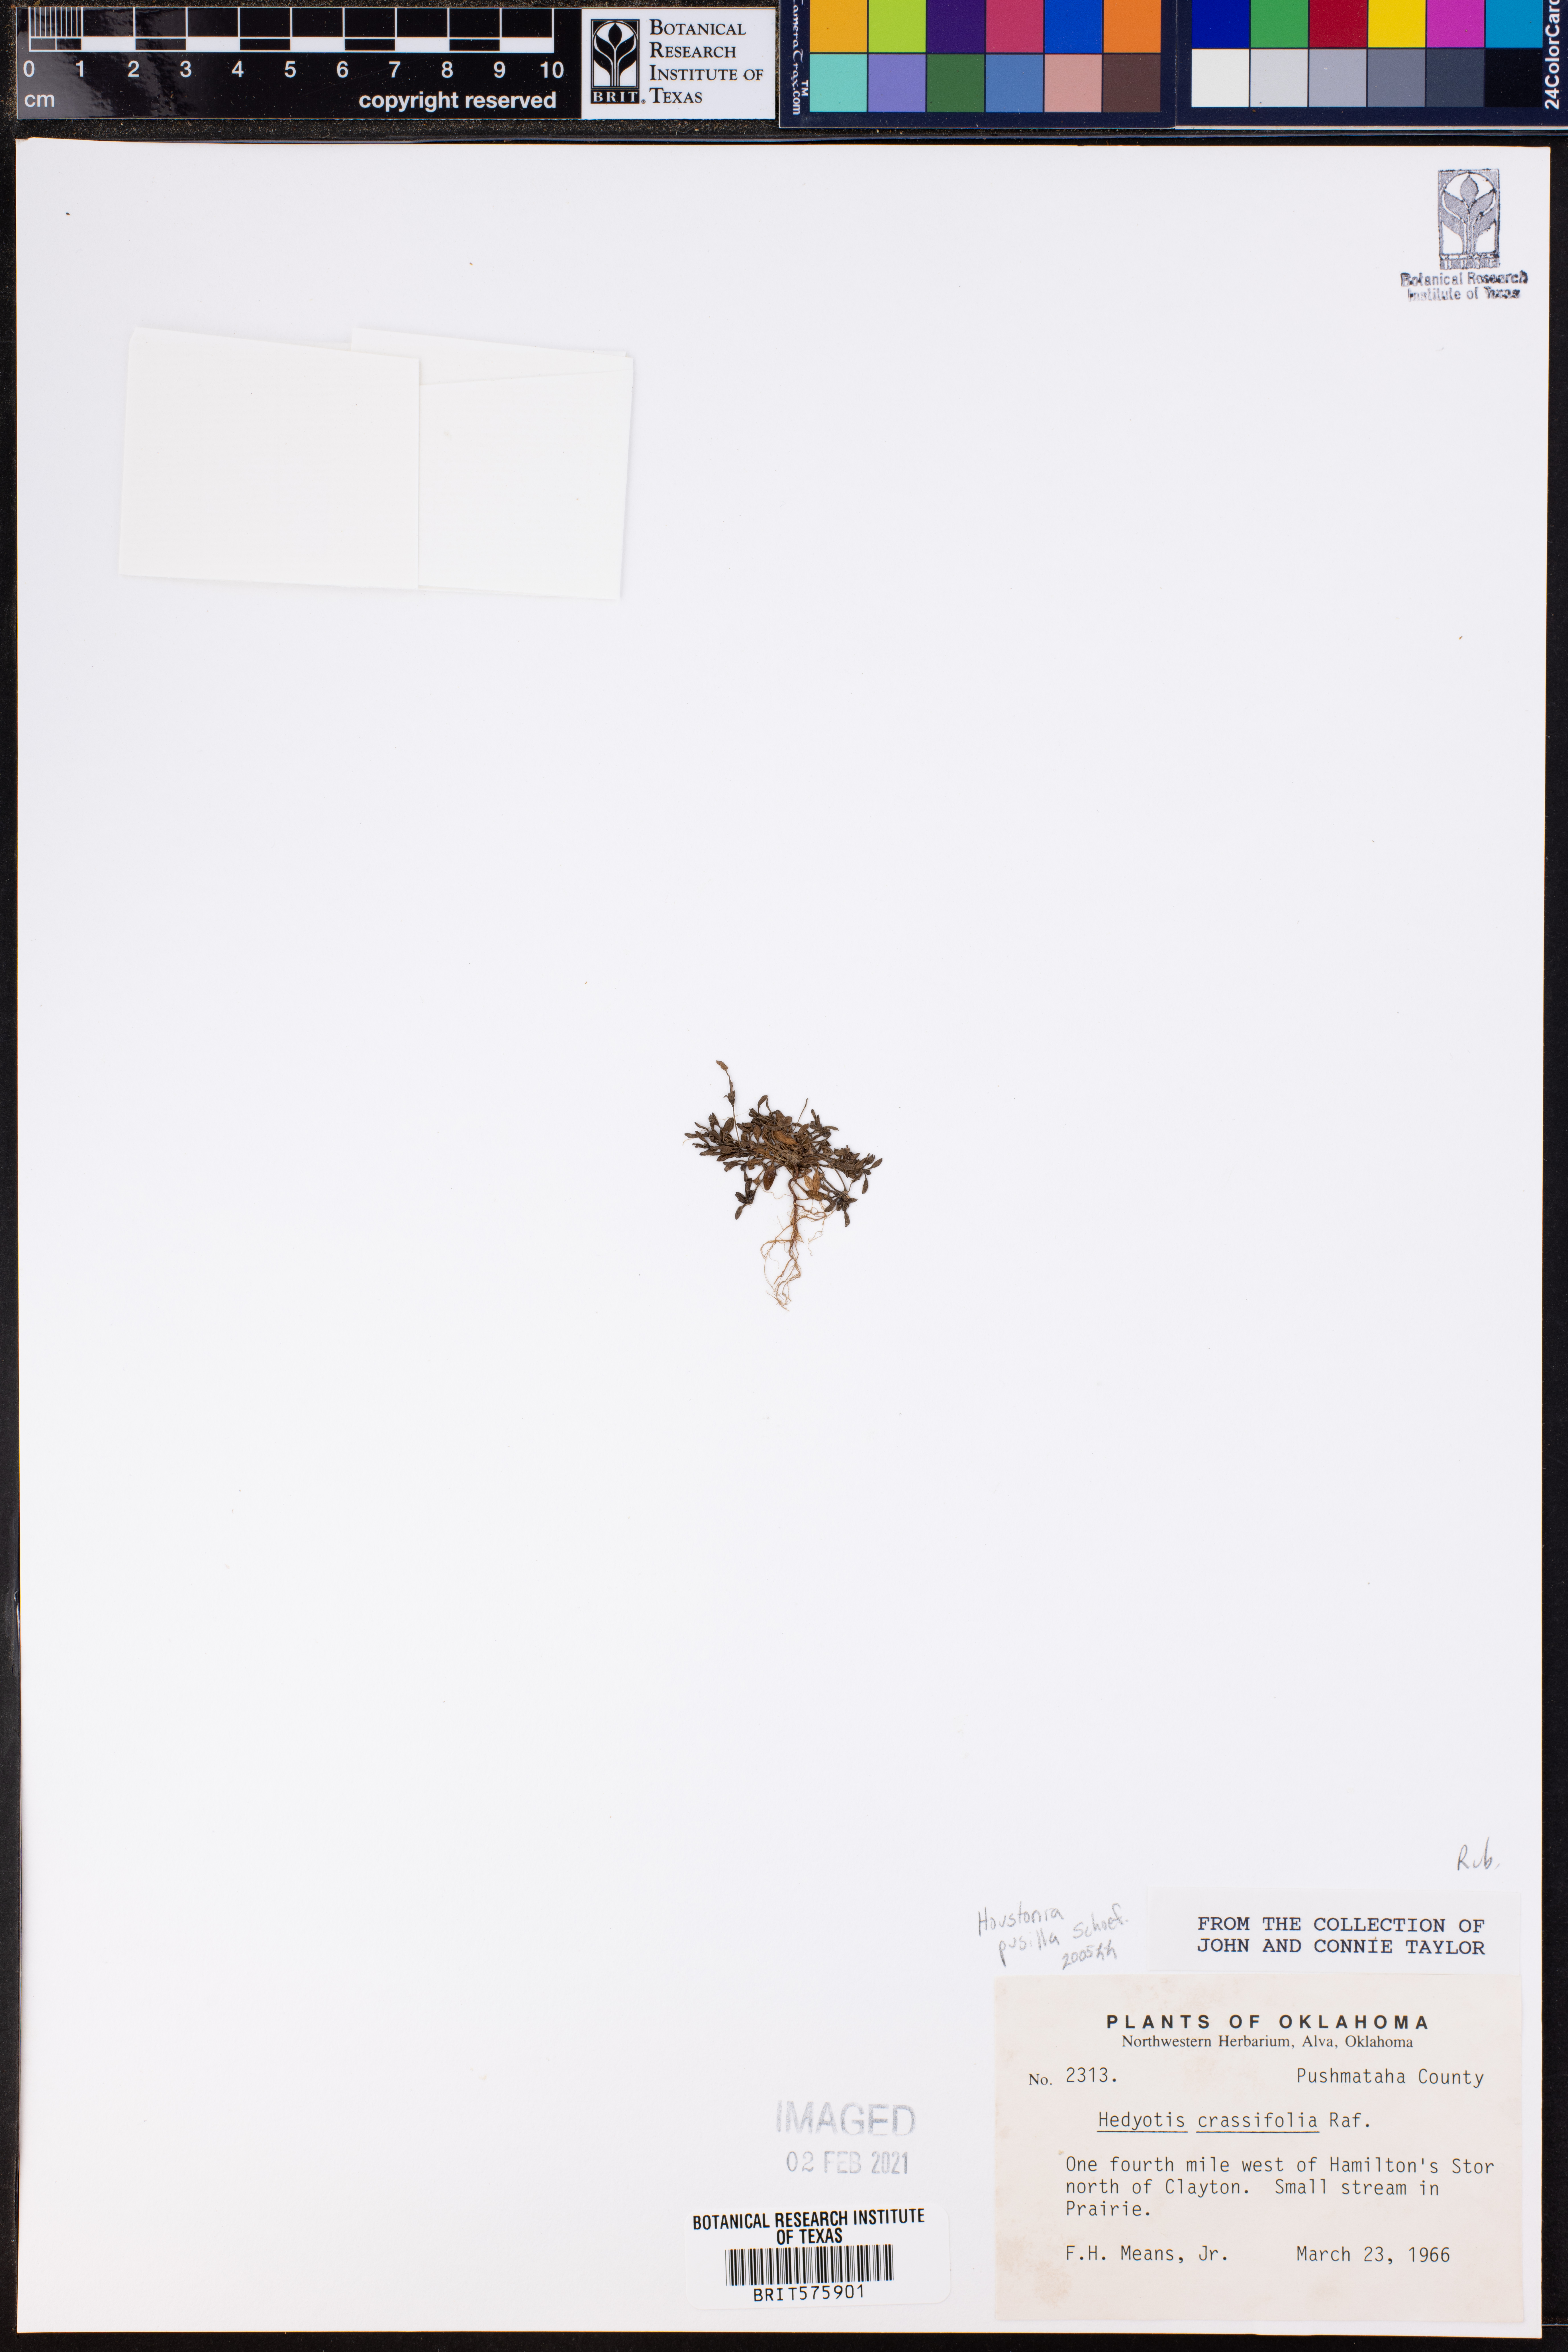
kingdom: Plantae
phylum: Tracheophyta
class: Magnoliopsida
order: Gentianales
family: Rubiaceae
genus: Houstonia
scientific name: Houstonia pusilla
